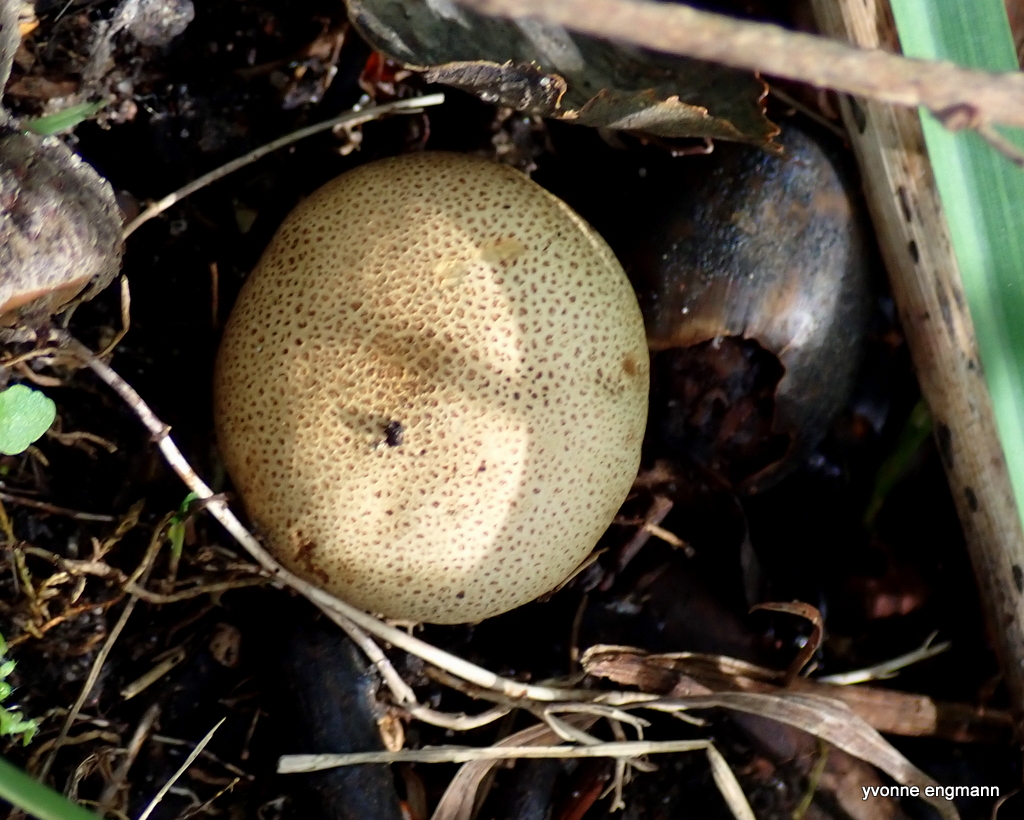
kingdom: Fungi
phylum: Basidiomycota
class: Agaricomycetes
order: Boletales
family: Sclerodermataceae
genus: Scleroderma
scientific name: Scleroderma citrinum
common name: almindelig bruskbold
